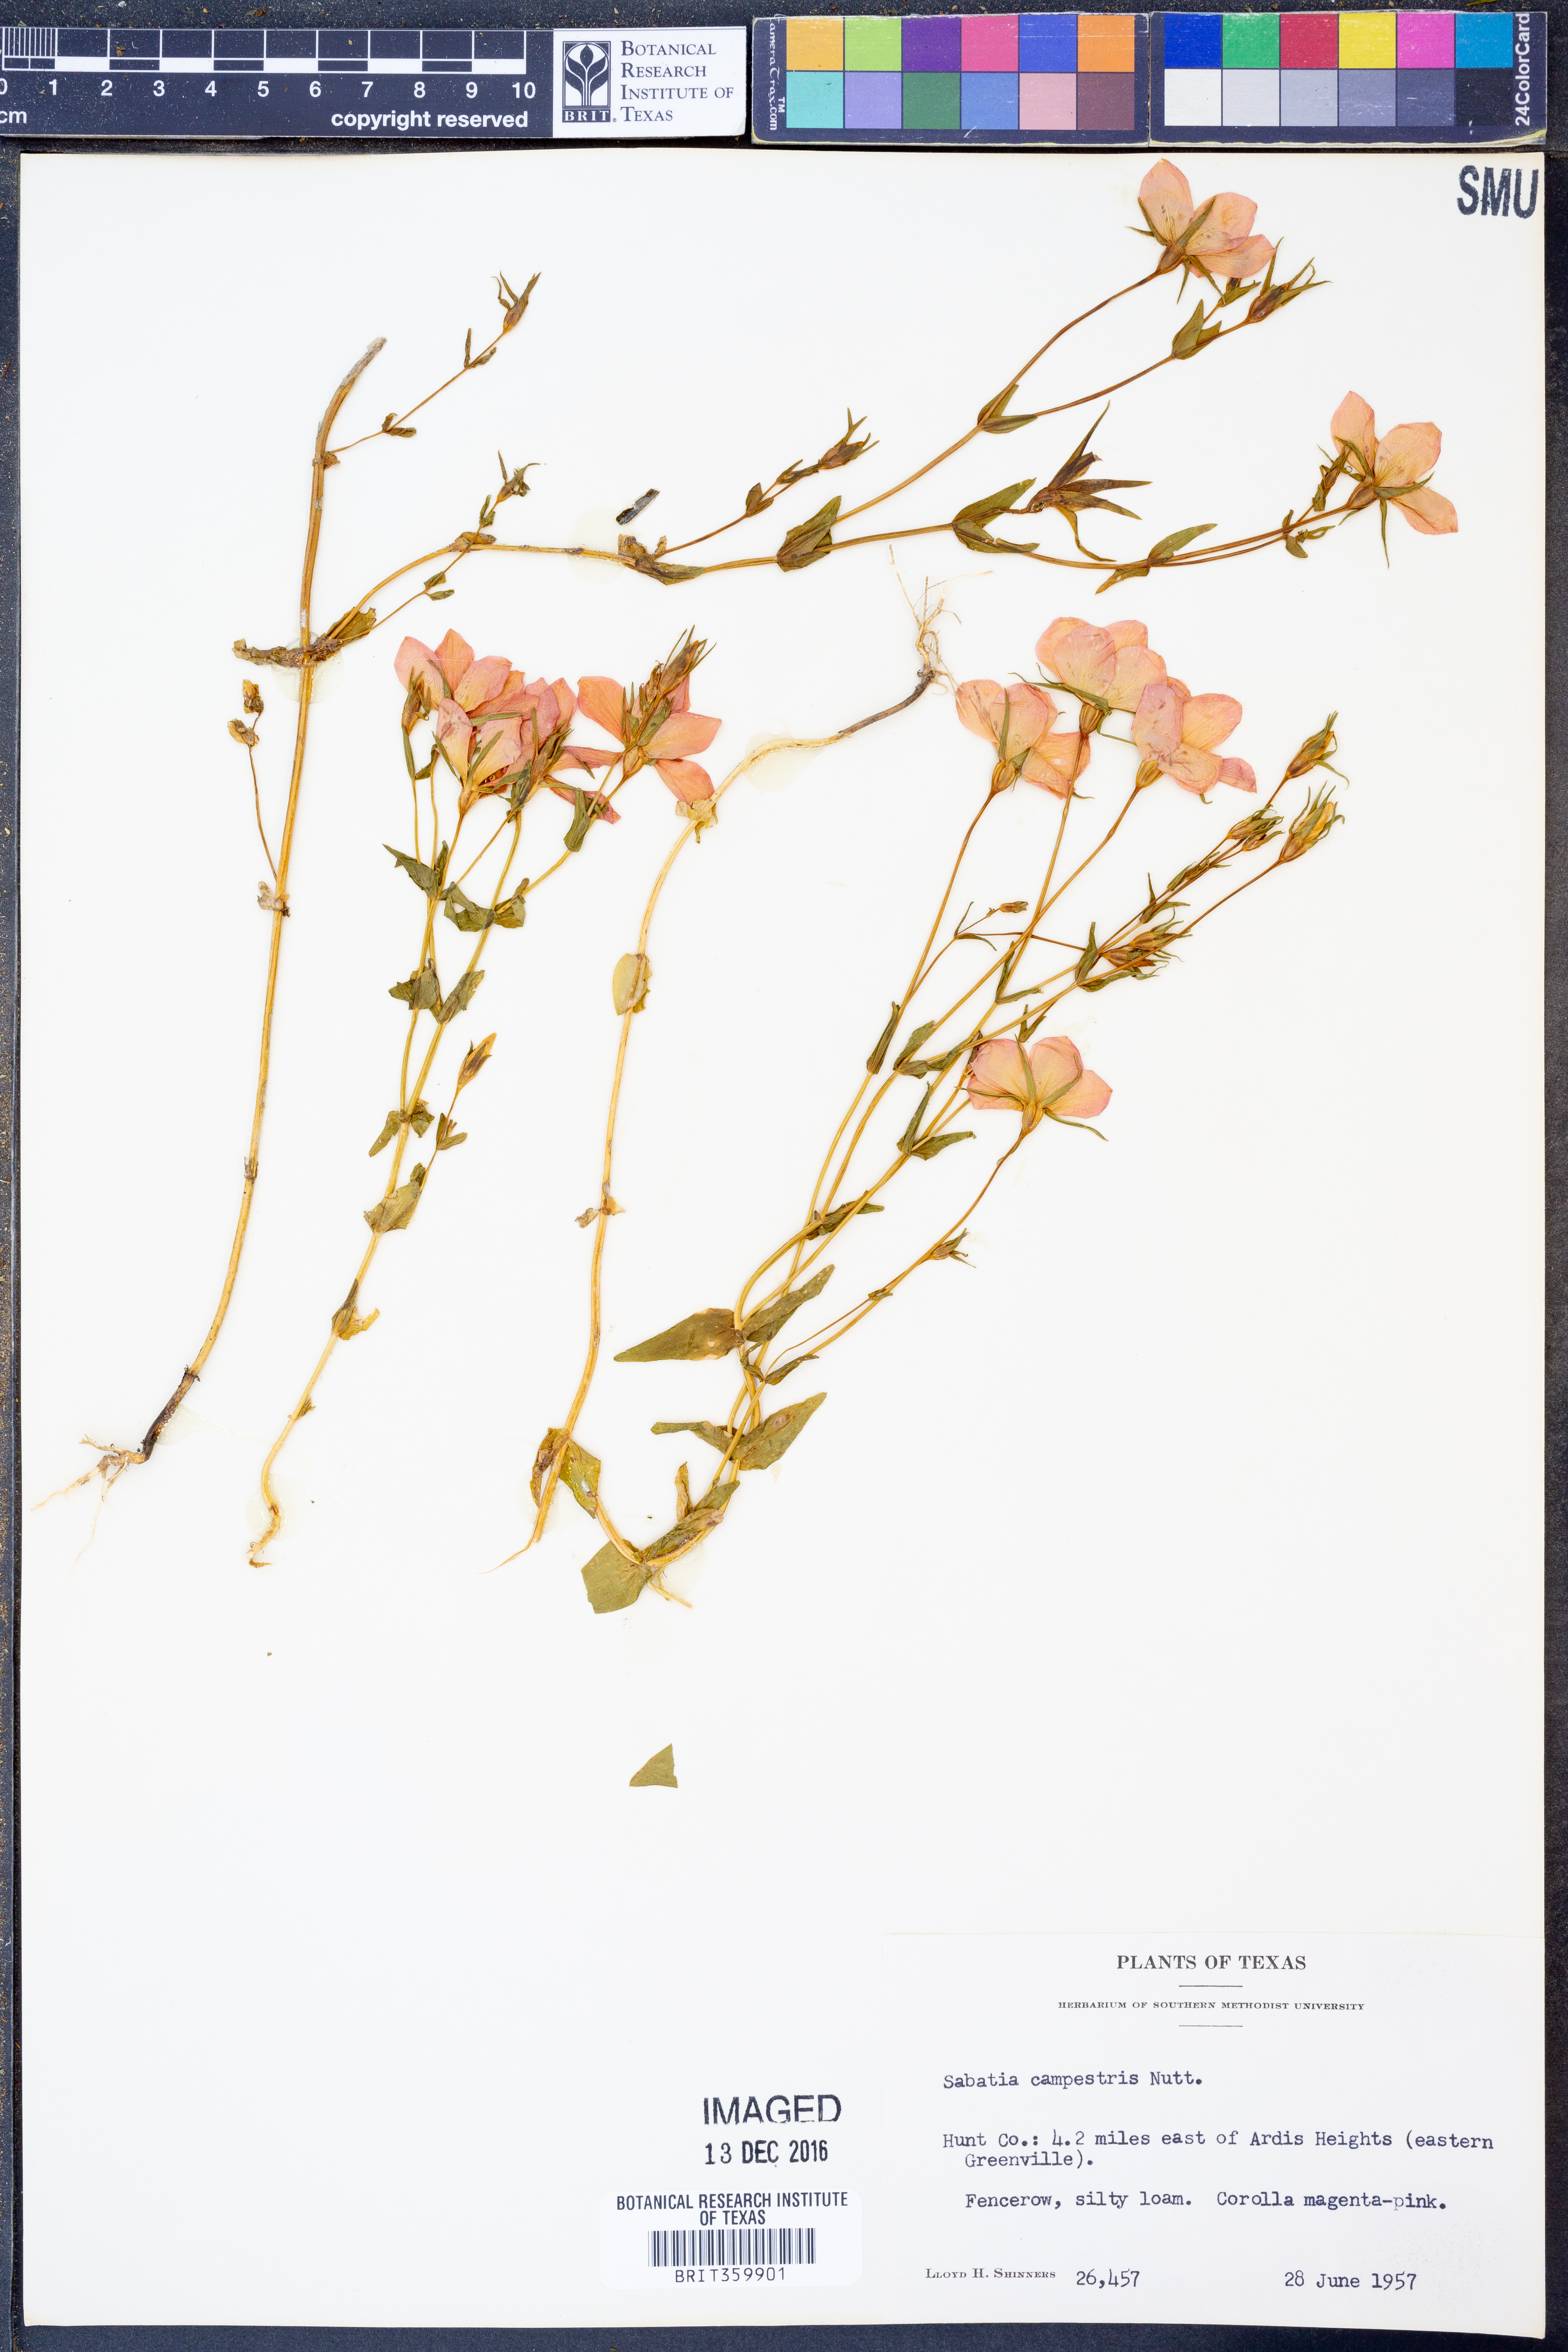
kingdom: Plantae
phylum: Tracheophyta
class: Magnoliopsida
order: Gentianales
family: Gentianaceae
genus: Sabatia
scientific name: Sabatia campestris
